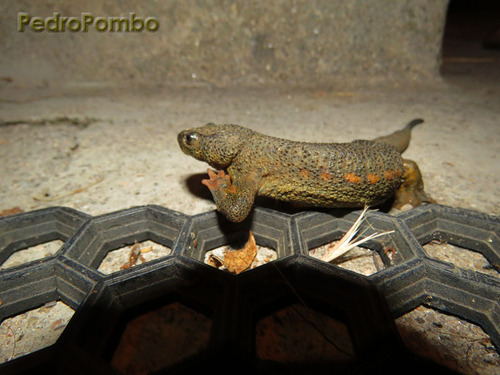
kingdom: Animalia
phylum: Chordata
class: Amphibia
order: Caudata
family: Salamandridae
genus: Pleurodeles
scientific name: Pleurodeles waltl
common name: Iberian ribbed newt
